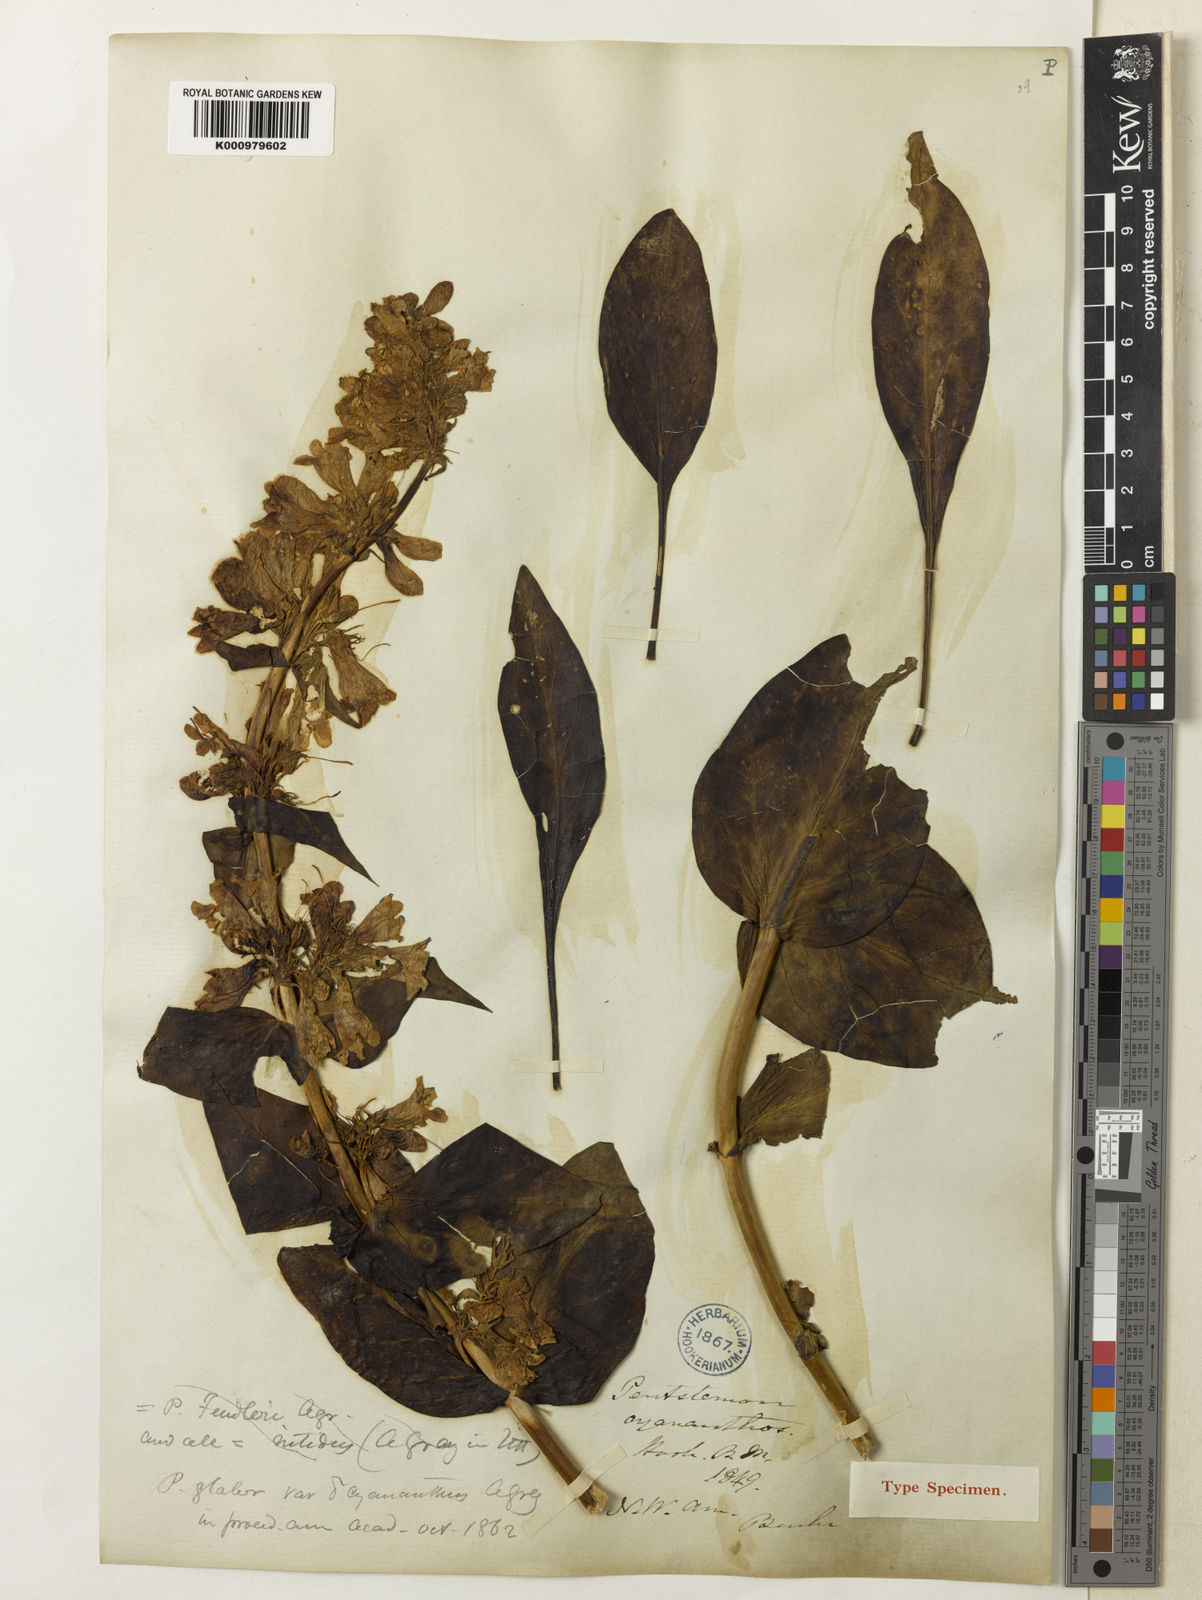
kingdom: Plantae
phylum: Tracheophyta
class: Magnoliopsida
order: Lamiales
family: Plantaginaceae
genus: Penstemon
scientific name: Penstemon cyananthus
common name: Wasatch penstemon
